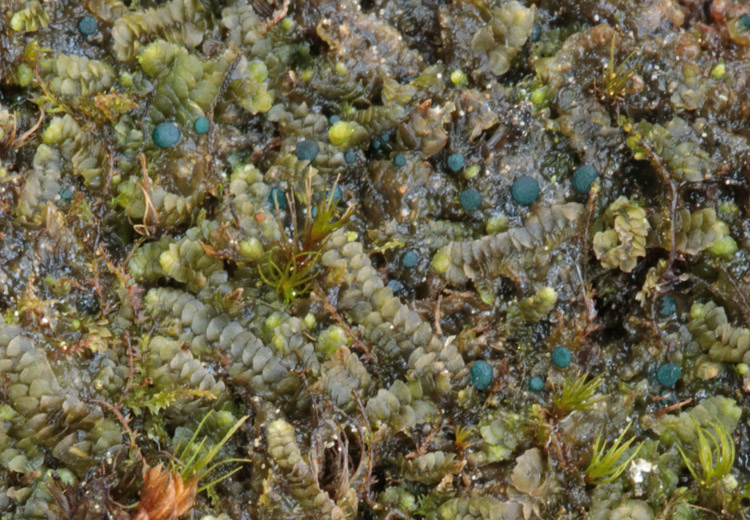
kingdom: Fungi
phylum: Ascomycota
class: Leotiomycetes
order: Leotiales
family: Mniaeciaceae
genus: Mniaecia
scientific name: Mniaecia jungermanniae
